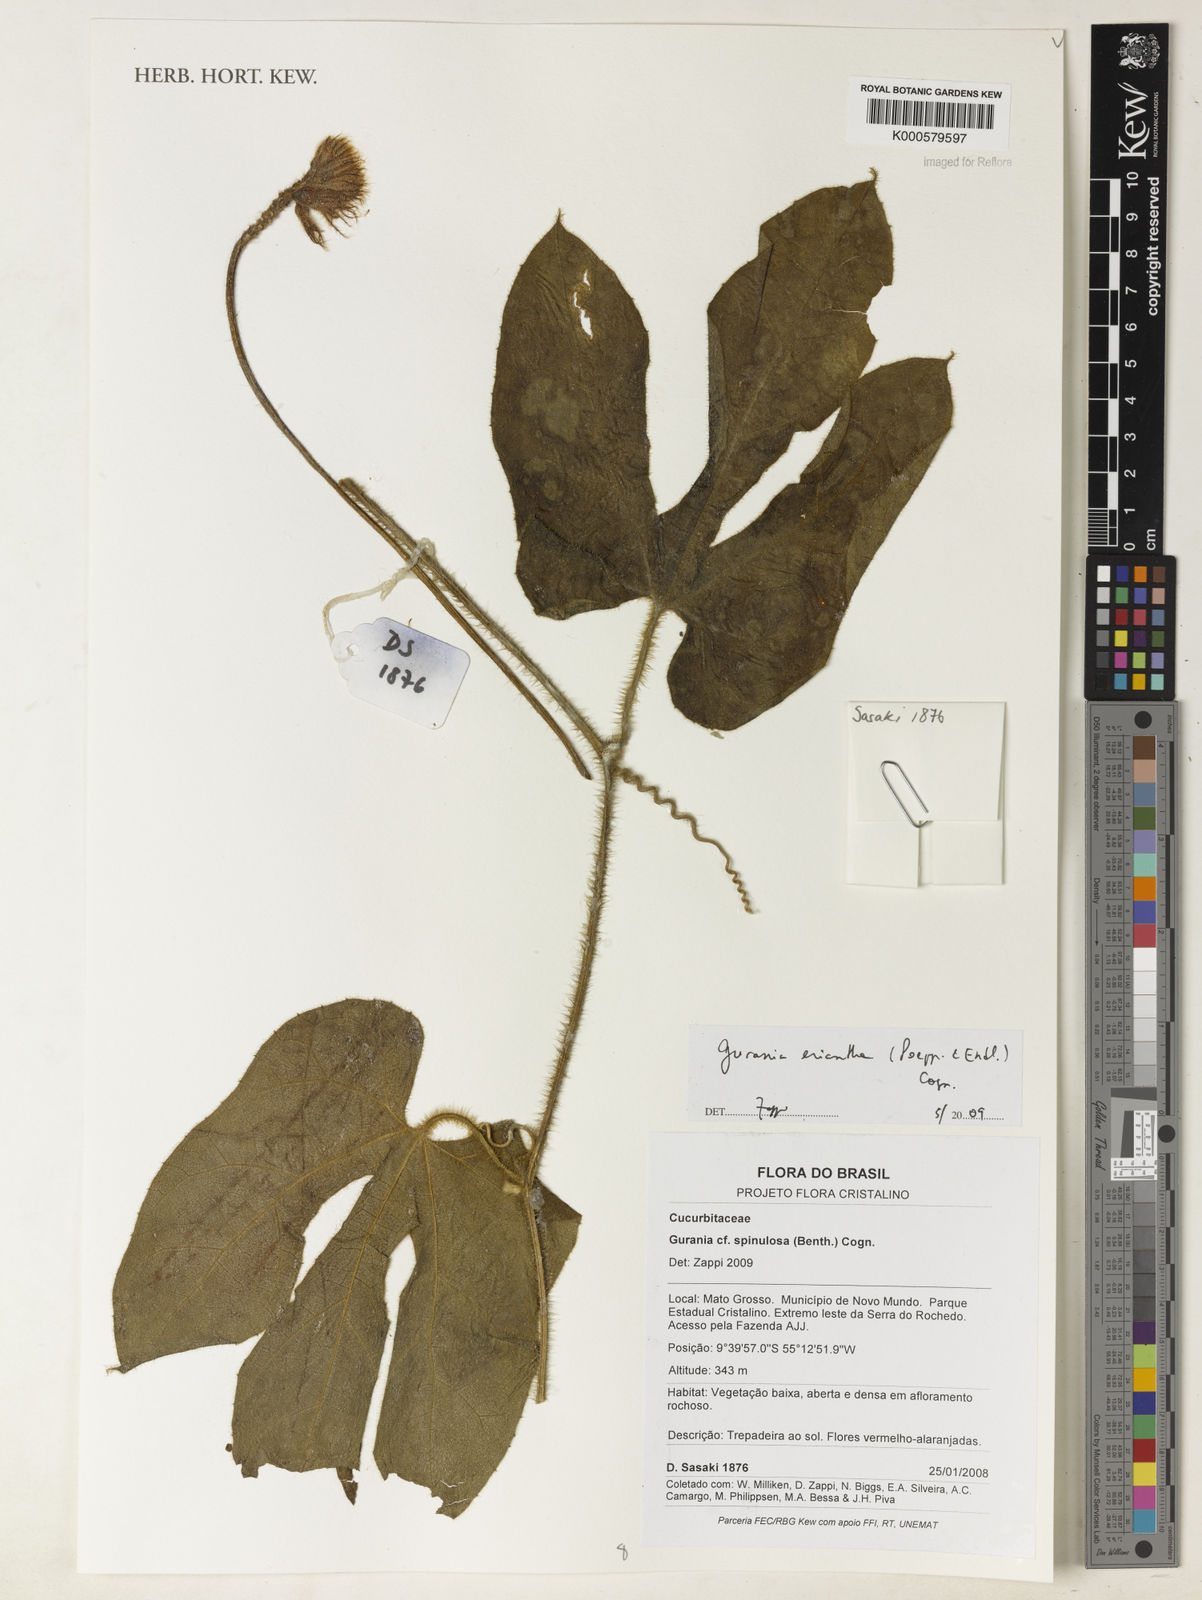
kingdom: Plantae
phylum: Tracheophyta
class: Magnoliopsida
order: Cucurbitales
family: Cucurbitaceae
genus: Gurania
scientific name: Gurania eriantha
